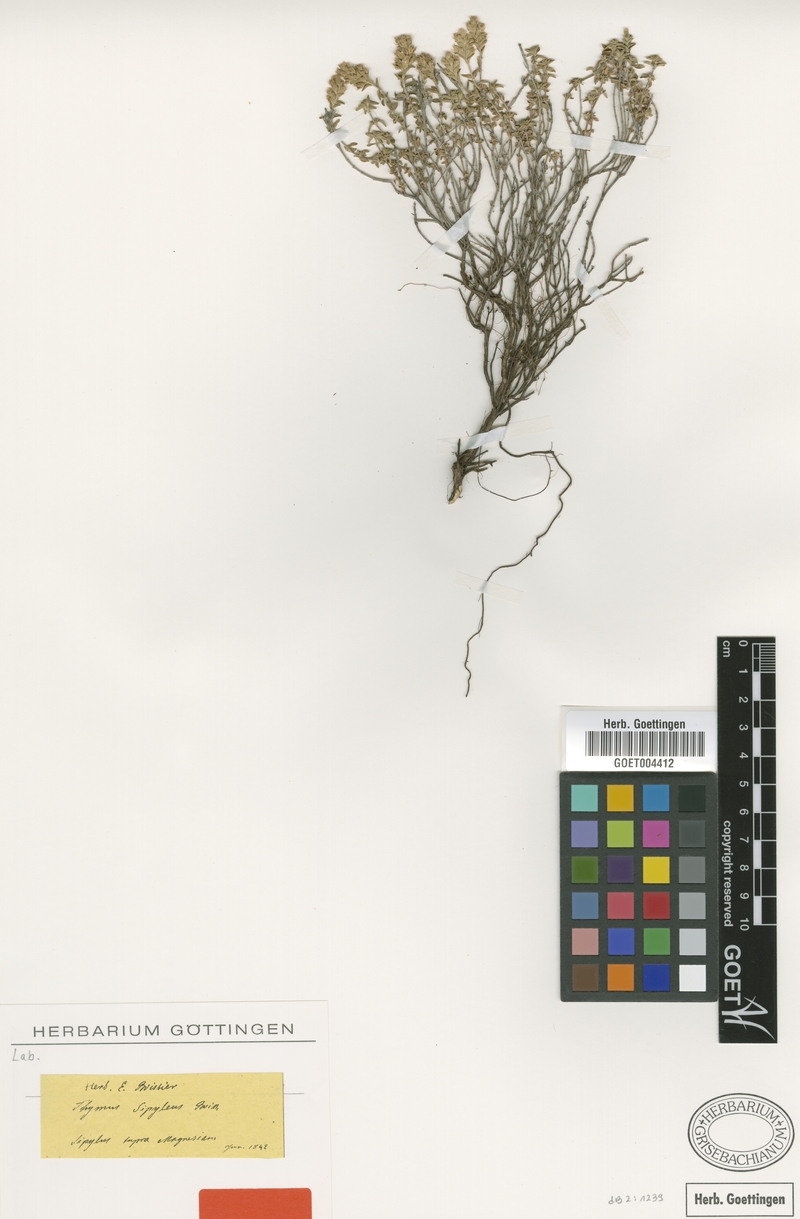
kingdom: Plantae
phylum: Tracheophyta
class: Magnoliopsida
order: Lamiales
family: Lamiaceae
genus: Thymus
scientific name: Thymus sipyleus
